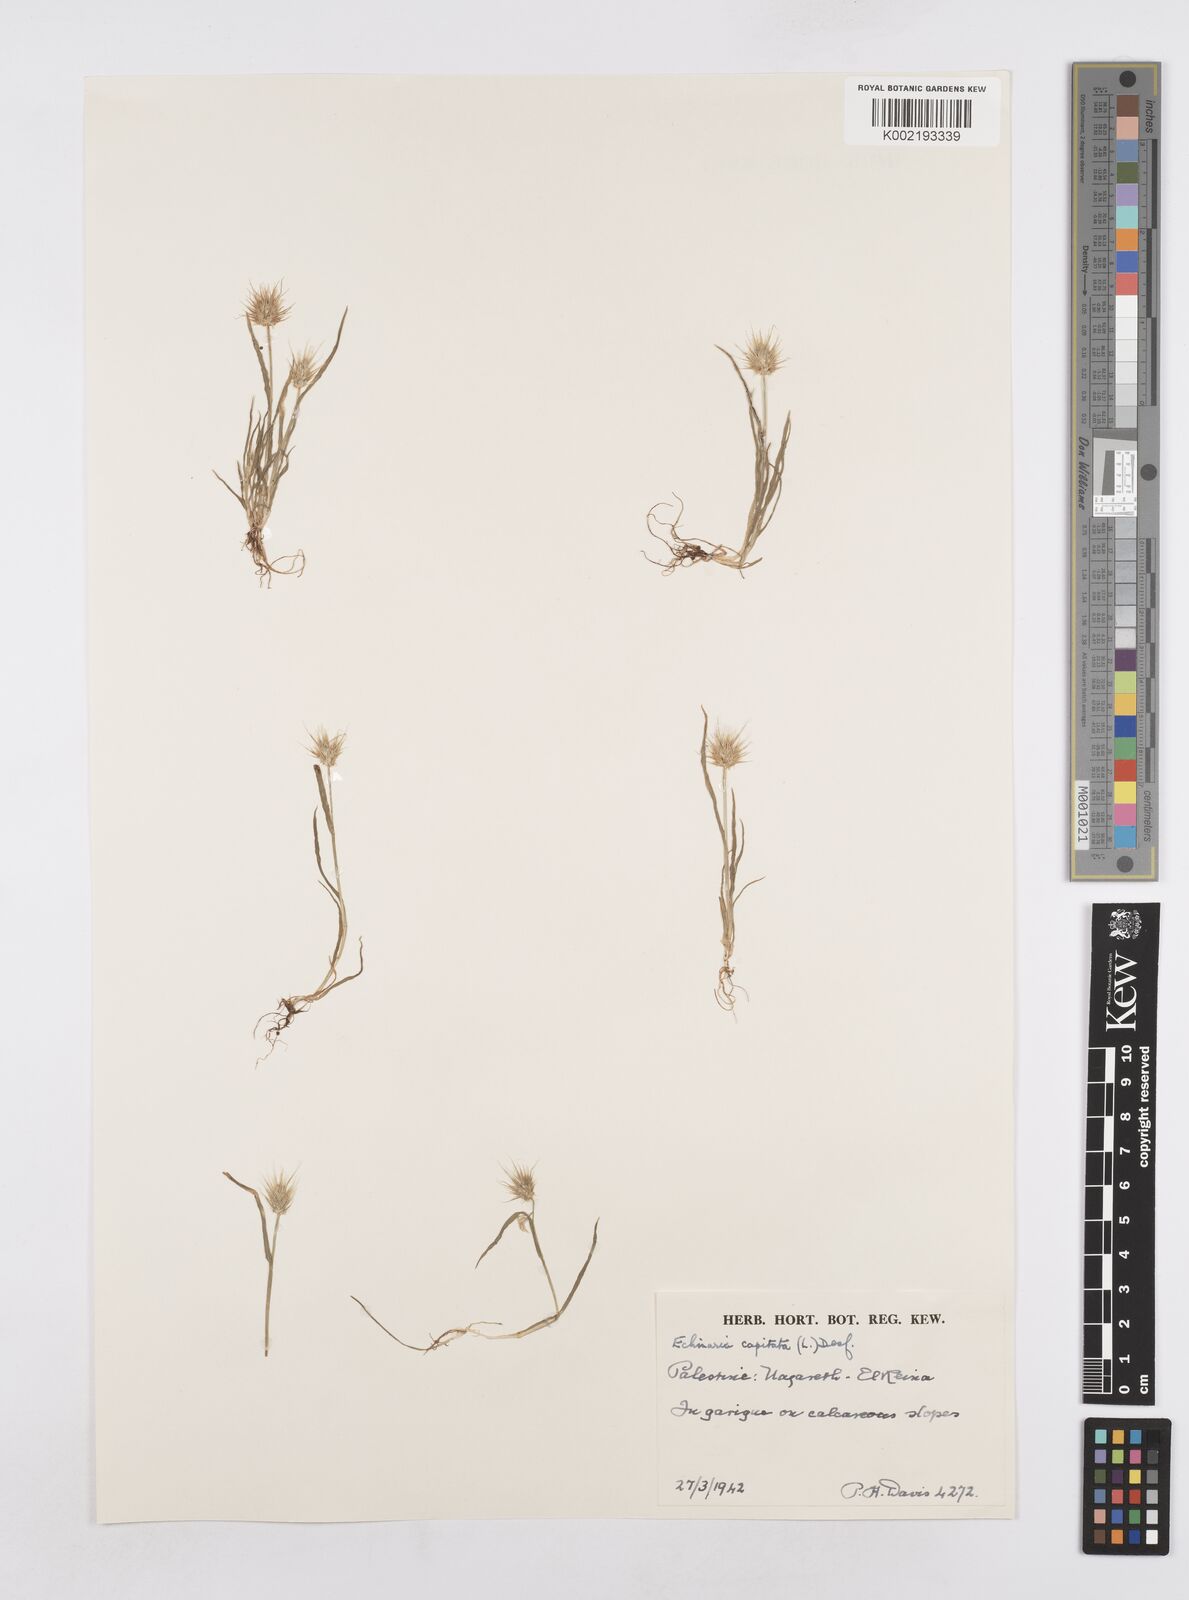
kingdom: Plantae
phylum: Tracheophyta
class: Liliopsida
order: Poales
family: Poaceae
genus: Echinaria
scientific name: Echinaria capitata
